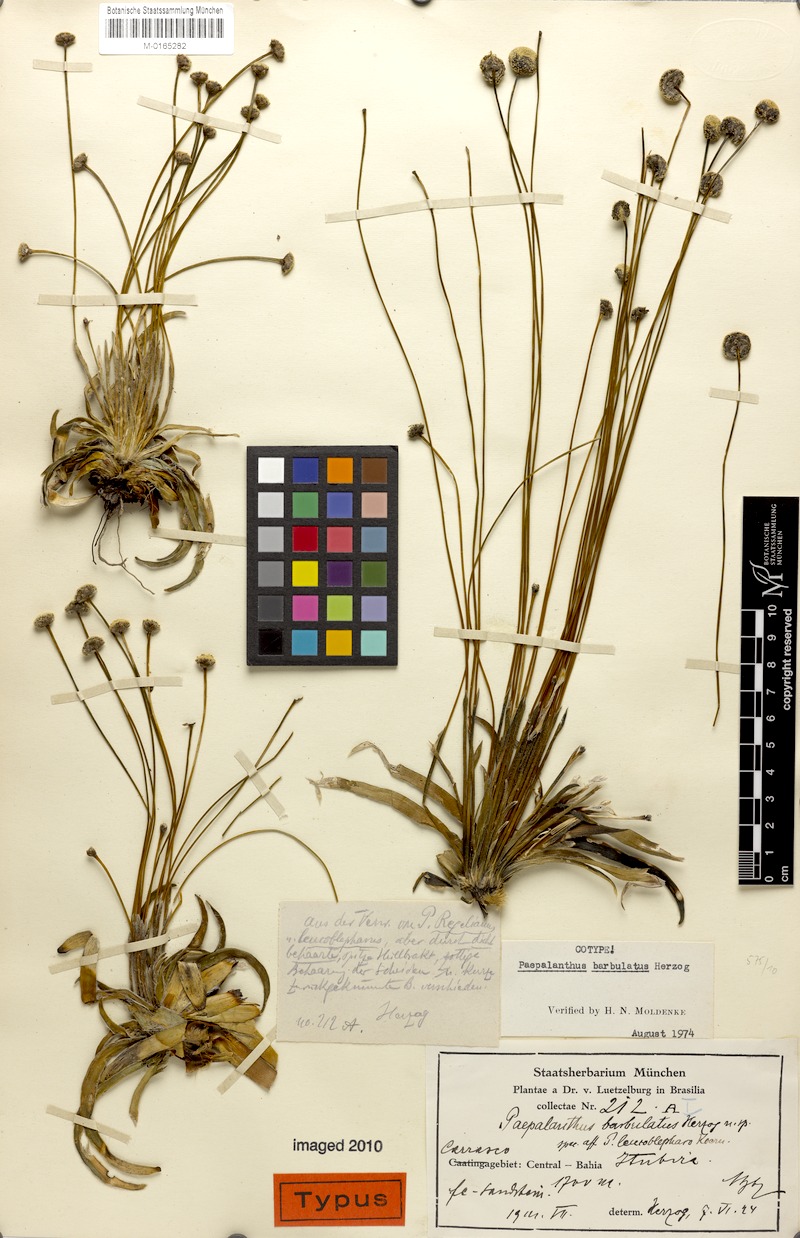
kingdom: Plantae
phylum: Tracheophyta
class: Liliopsida
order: Poales
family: Eriocaulaceae
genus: Paepalanthus
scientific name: Paepalanthus barbulatus
